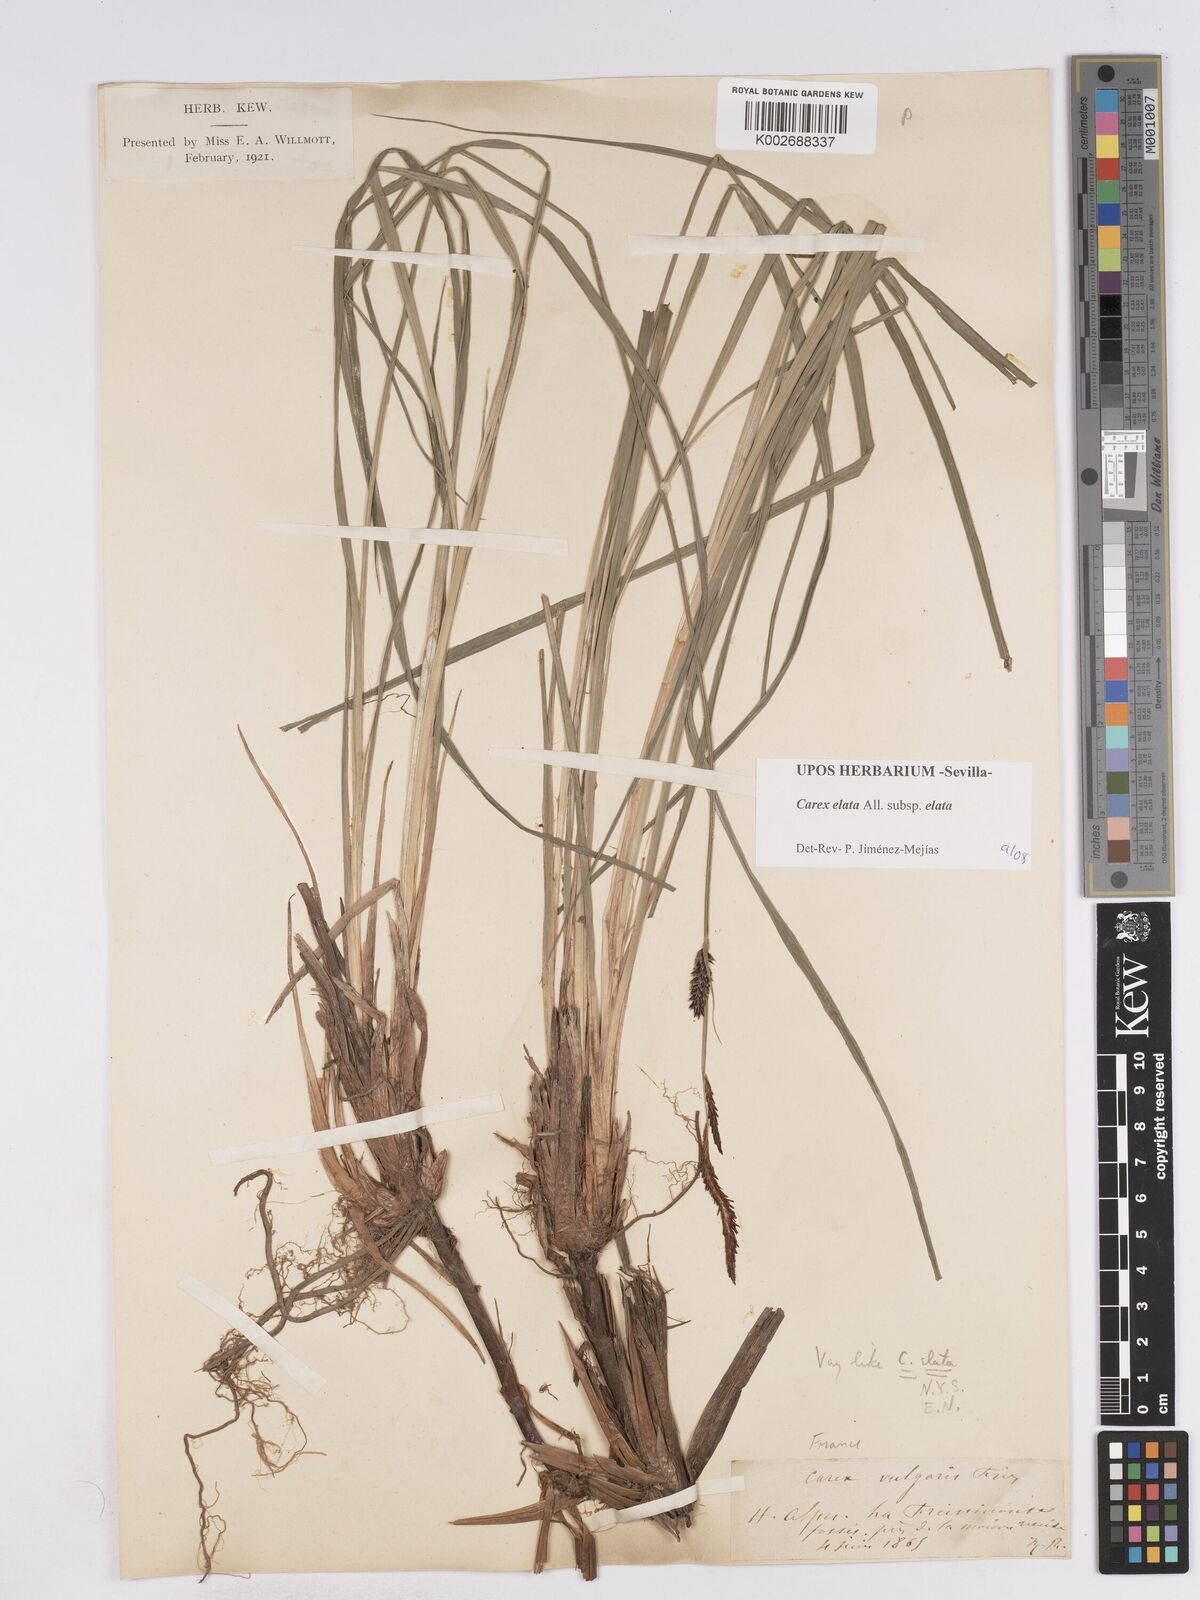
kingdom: Plantae
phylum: Tracheophyta
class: Liliopsida
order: Poales
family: Cyperaceae
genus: Carex
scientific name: Carex elata
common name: Tufted sedge
